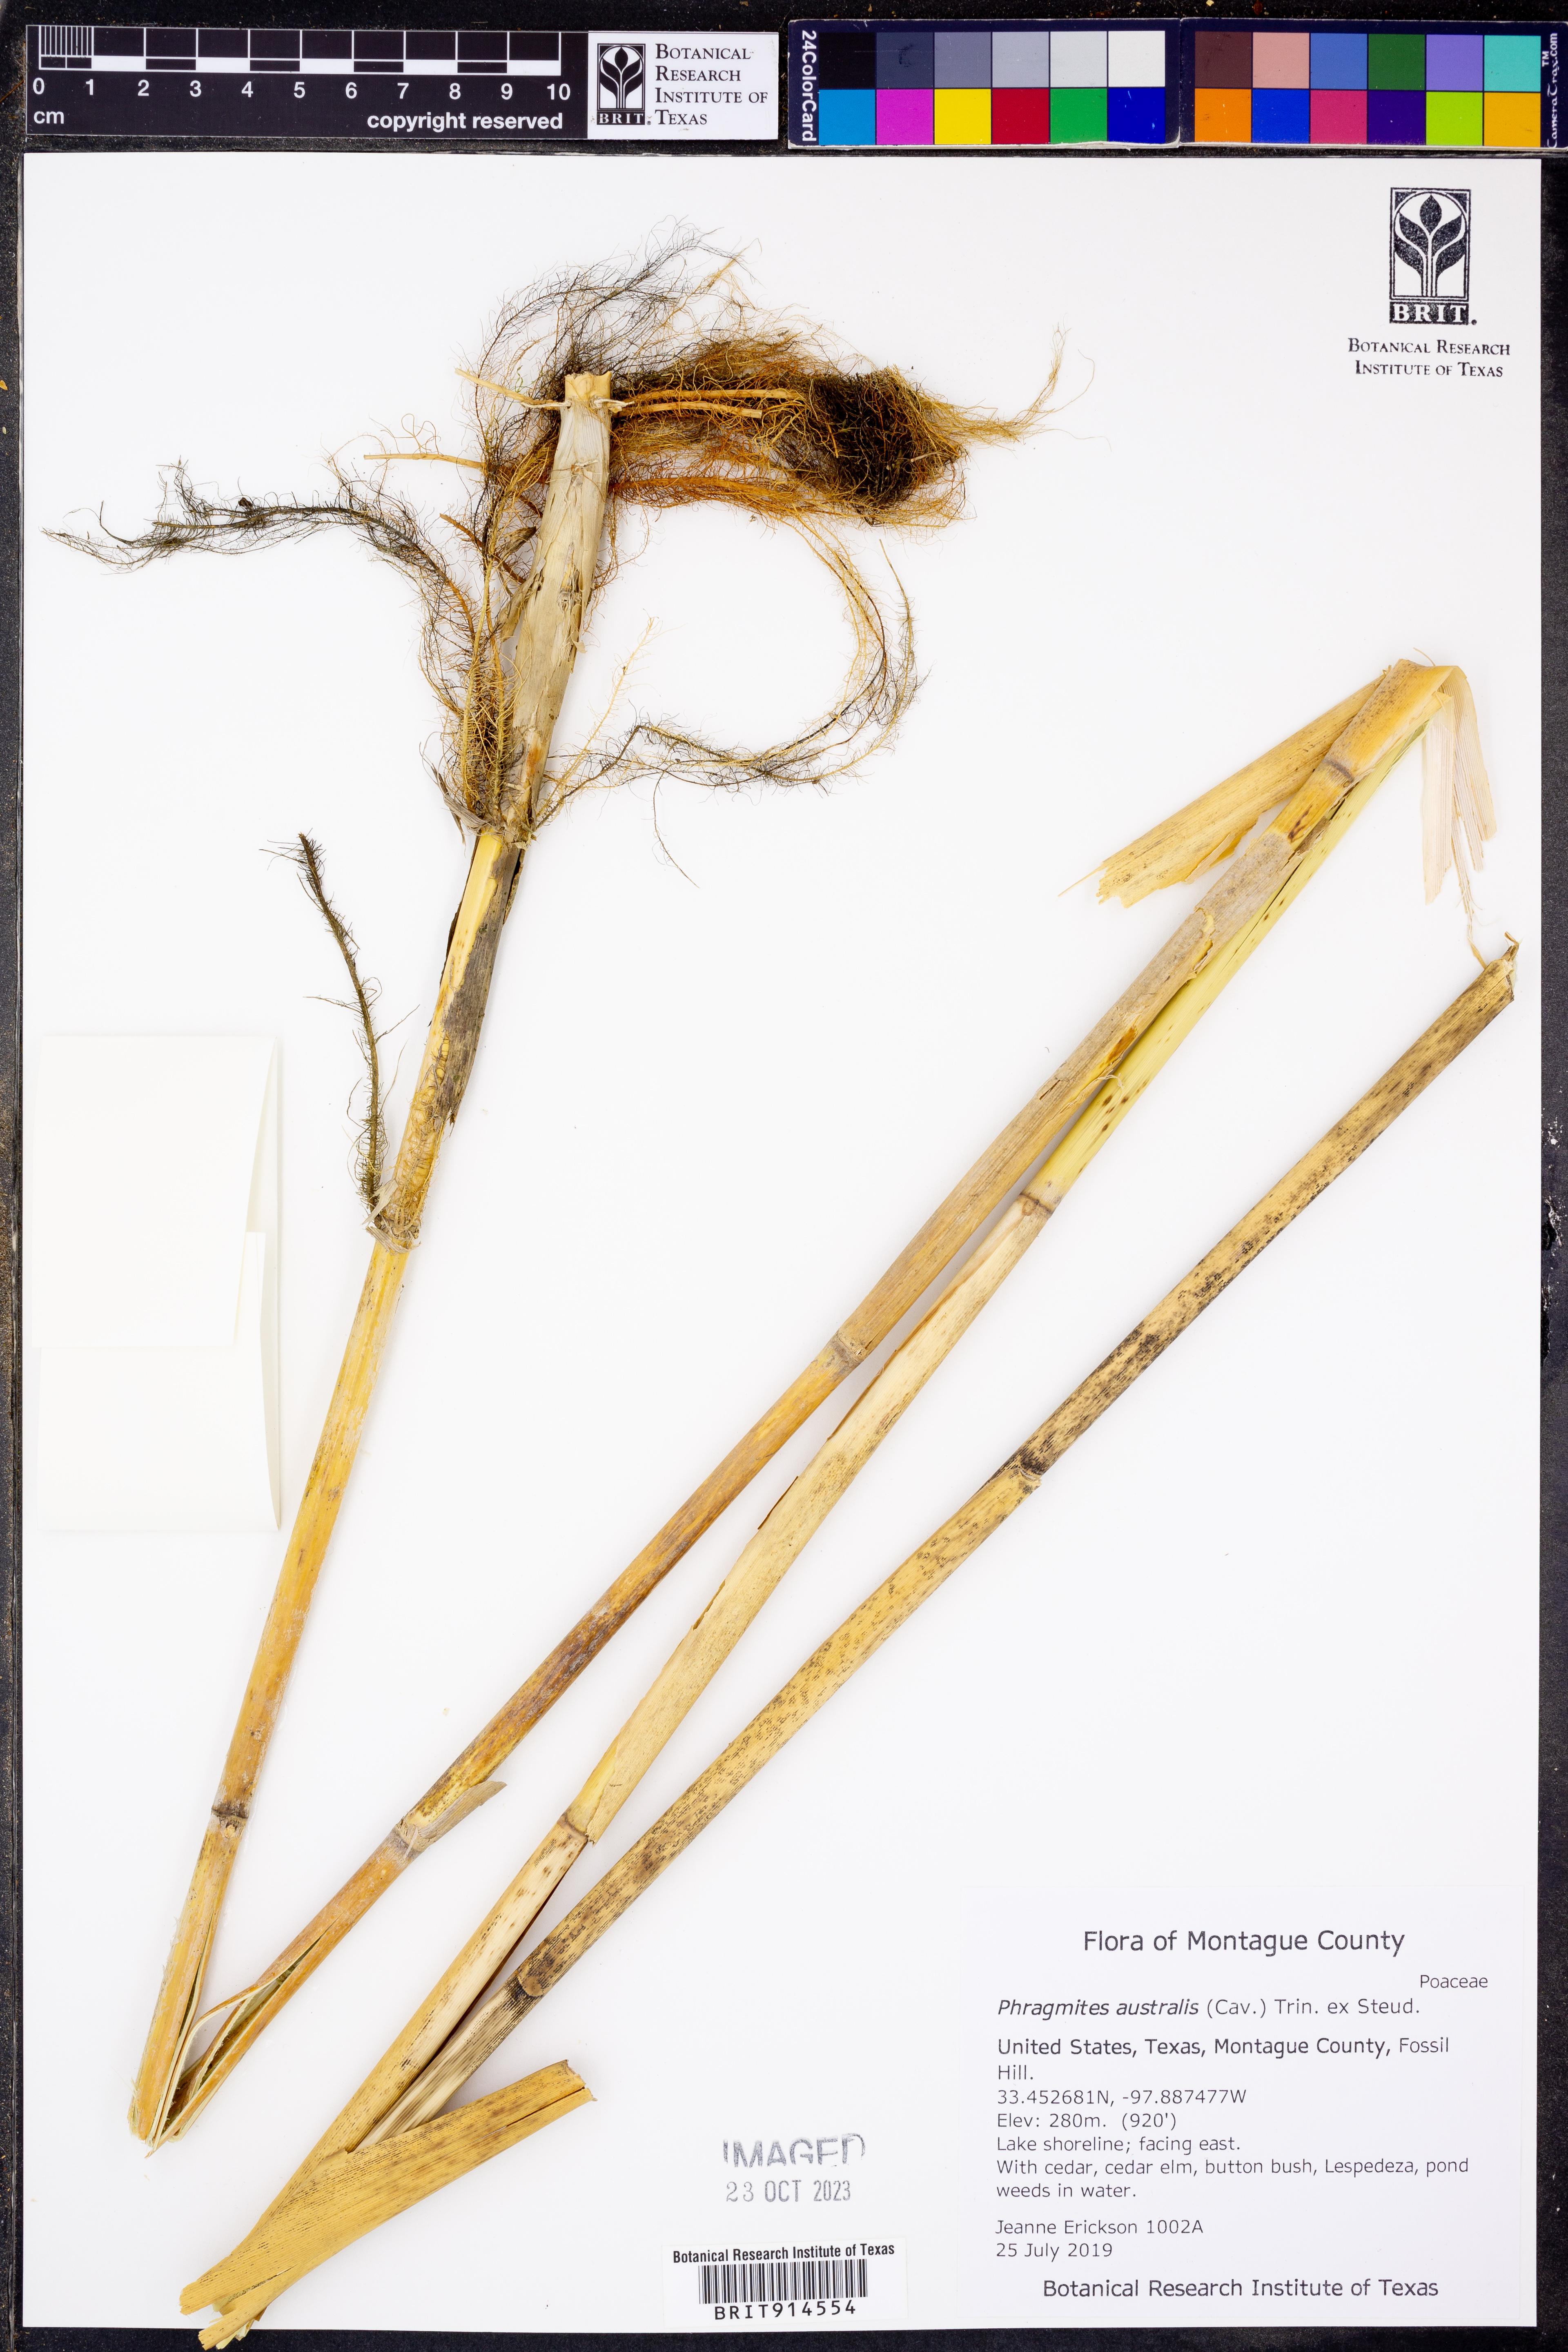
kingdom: Plantae
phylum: Tracheophyta
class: Liliopsida
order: Poales
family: Poaceae
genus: Phragmites
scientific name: Phragmites australis
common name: Common reed
